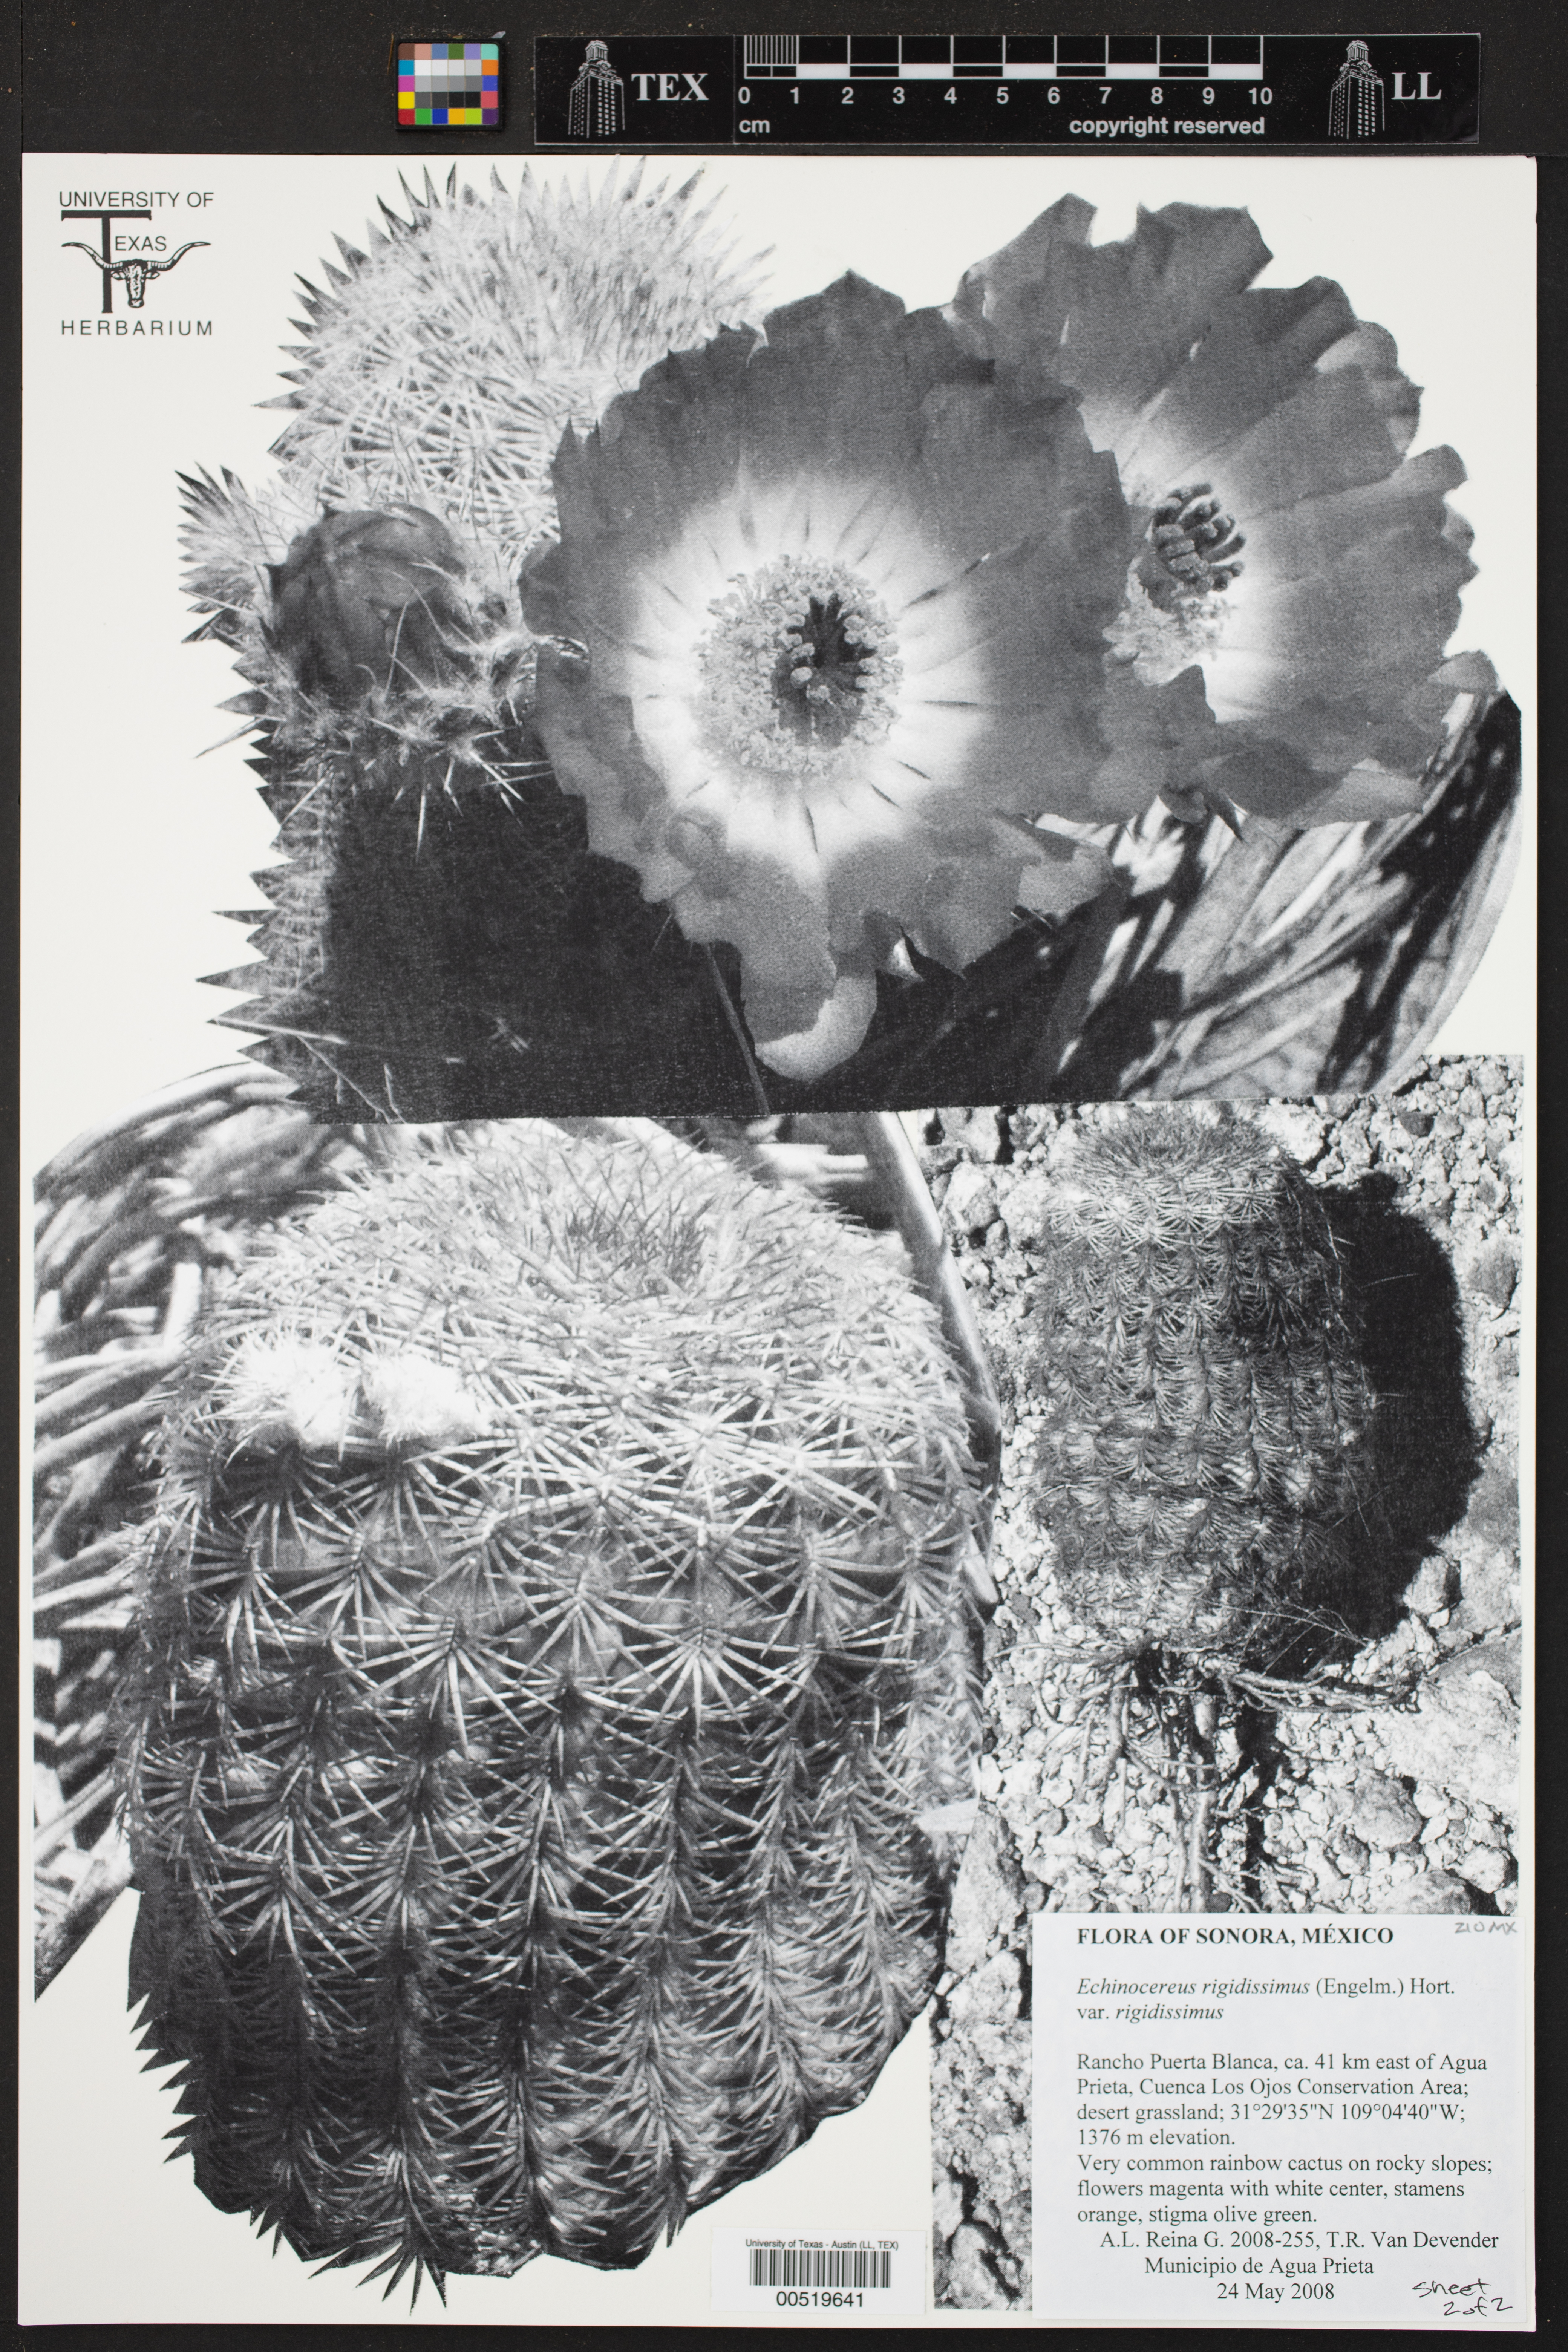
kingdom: Plantae
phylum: Tracheophyta
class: Magnoliopsida
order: Caryophyllales
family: Cactaceae
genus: Echinocereus
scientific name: Echinocereus rigidissimus
